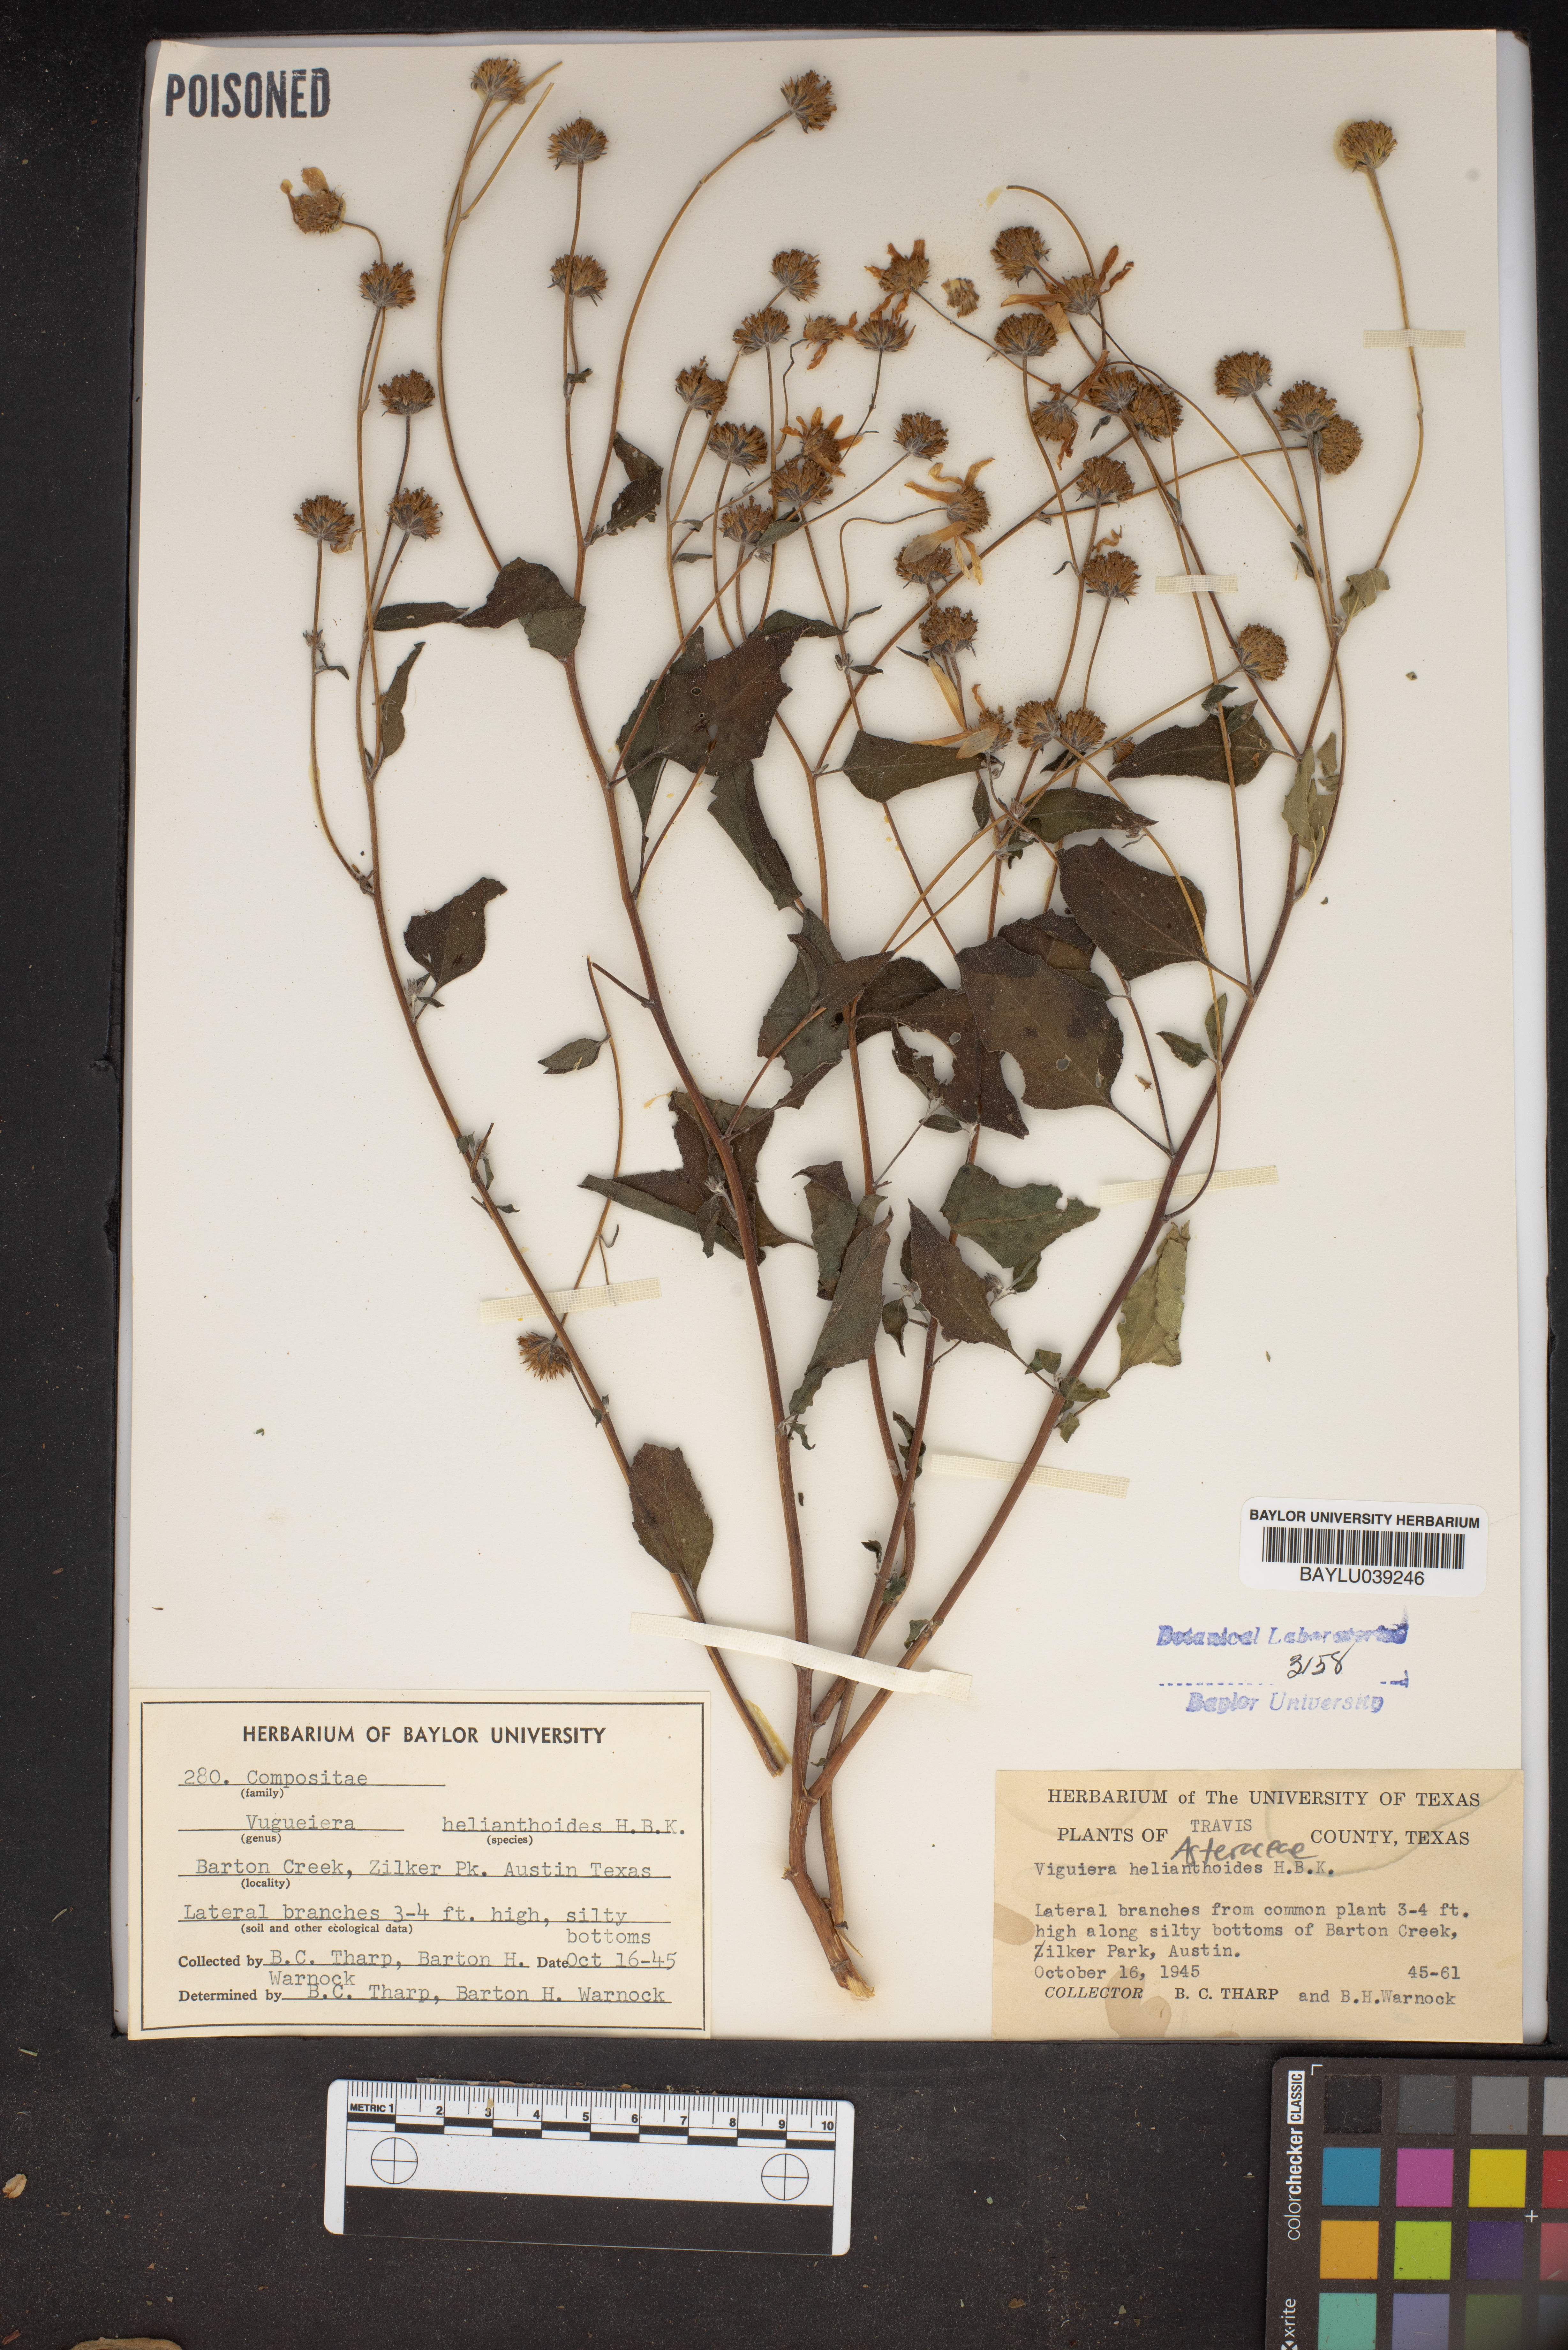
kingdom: Plantae
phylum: Tracheophyta
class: Magnoliopsida
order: Asterales
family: Asteraceae
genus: Viguiera
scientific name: Viguiera dentata
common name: Toothleaf
